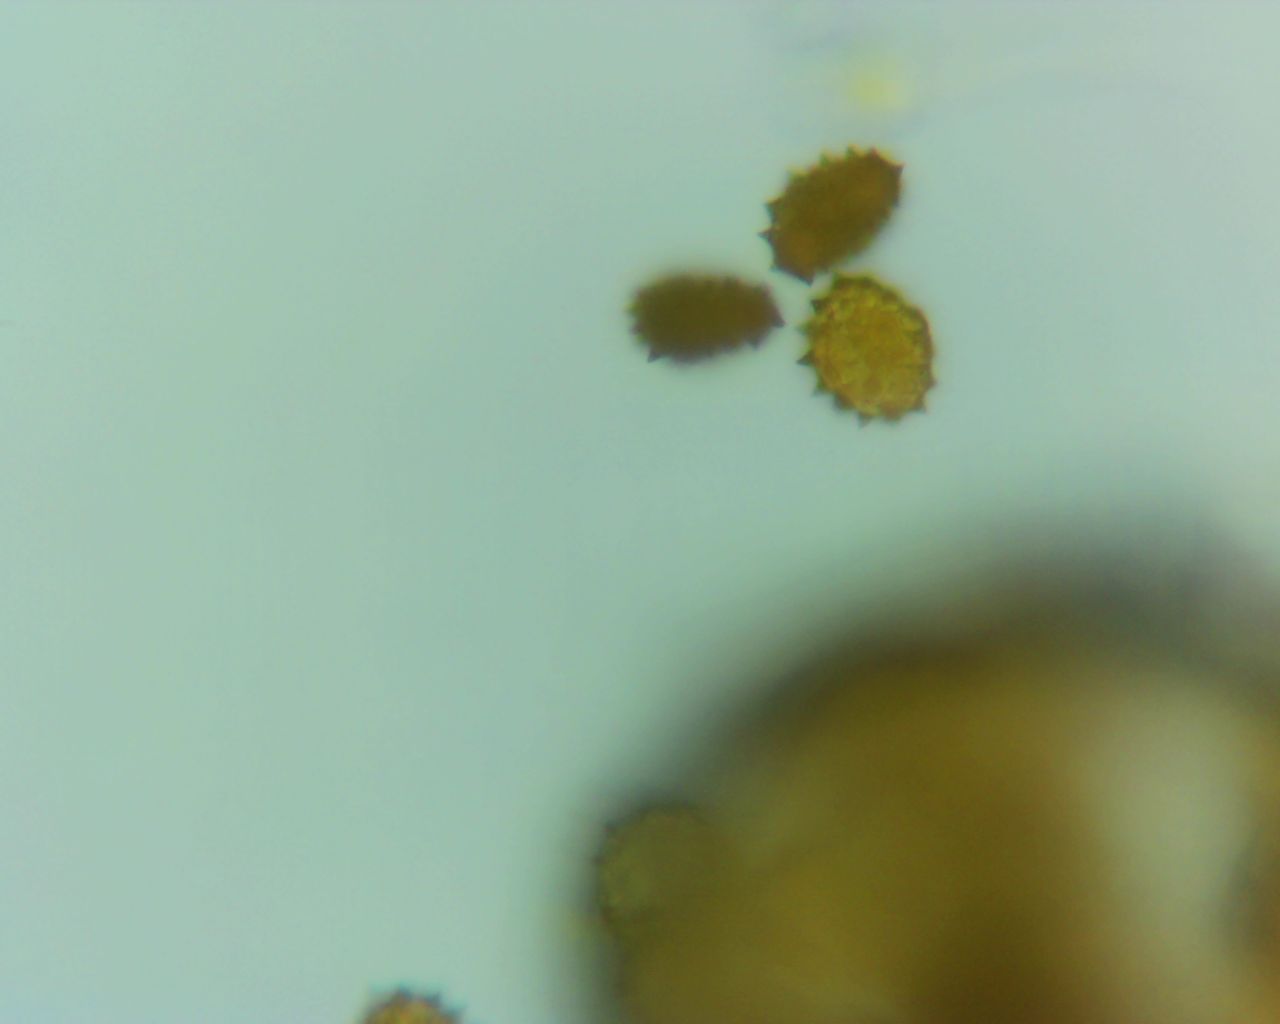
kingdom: Fungi
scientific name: Fungi
